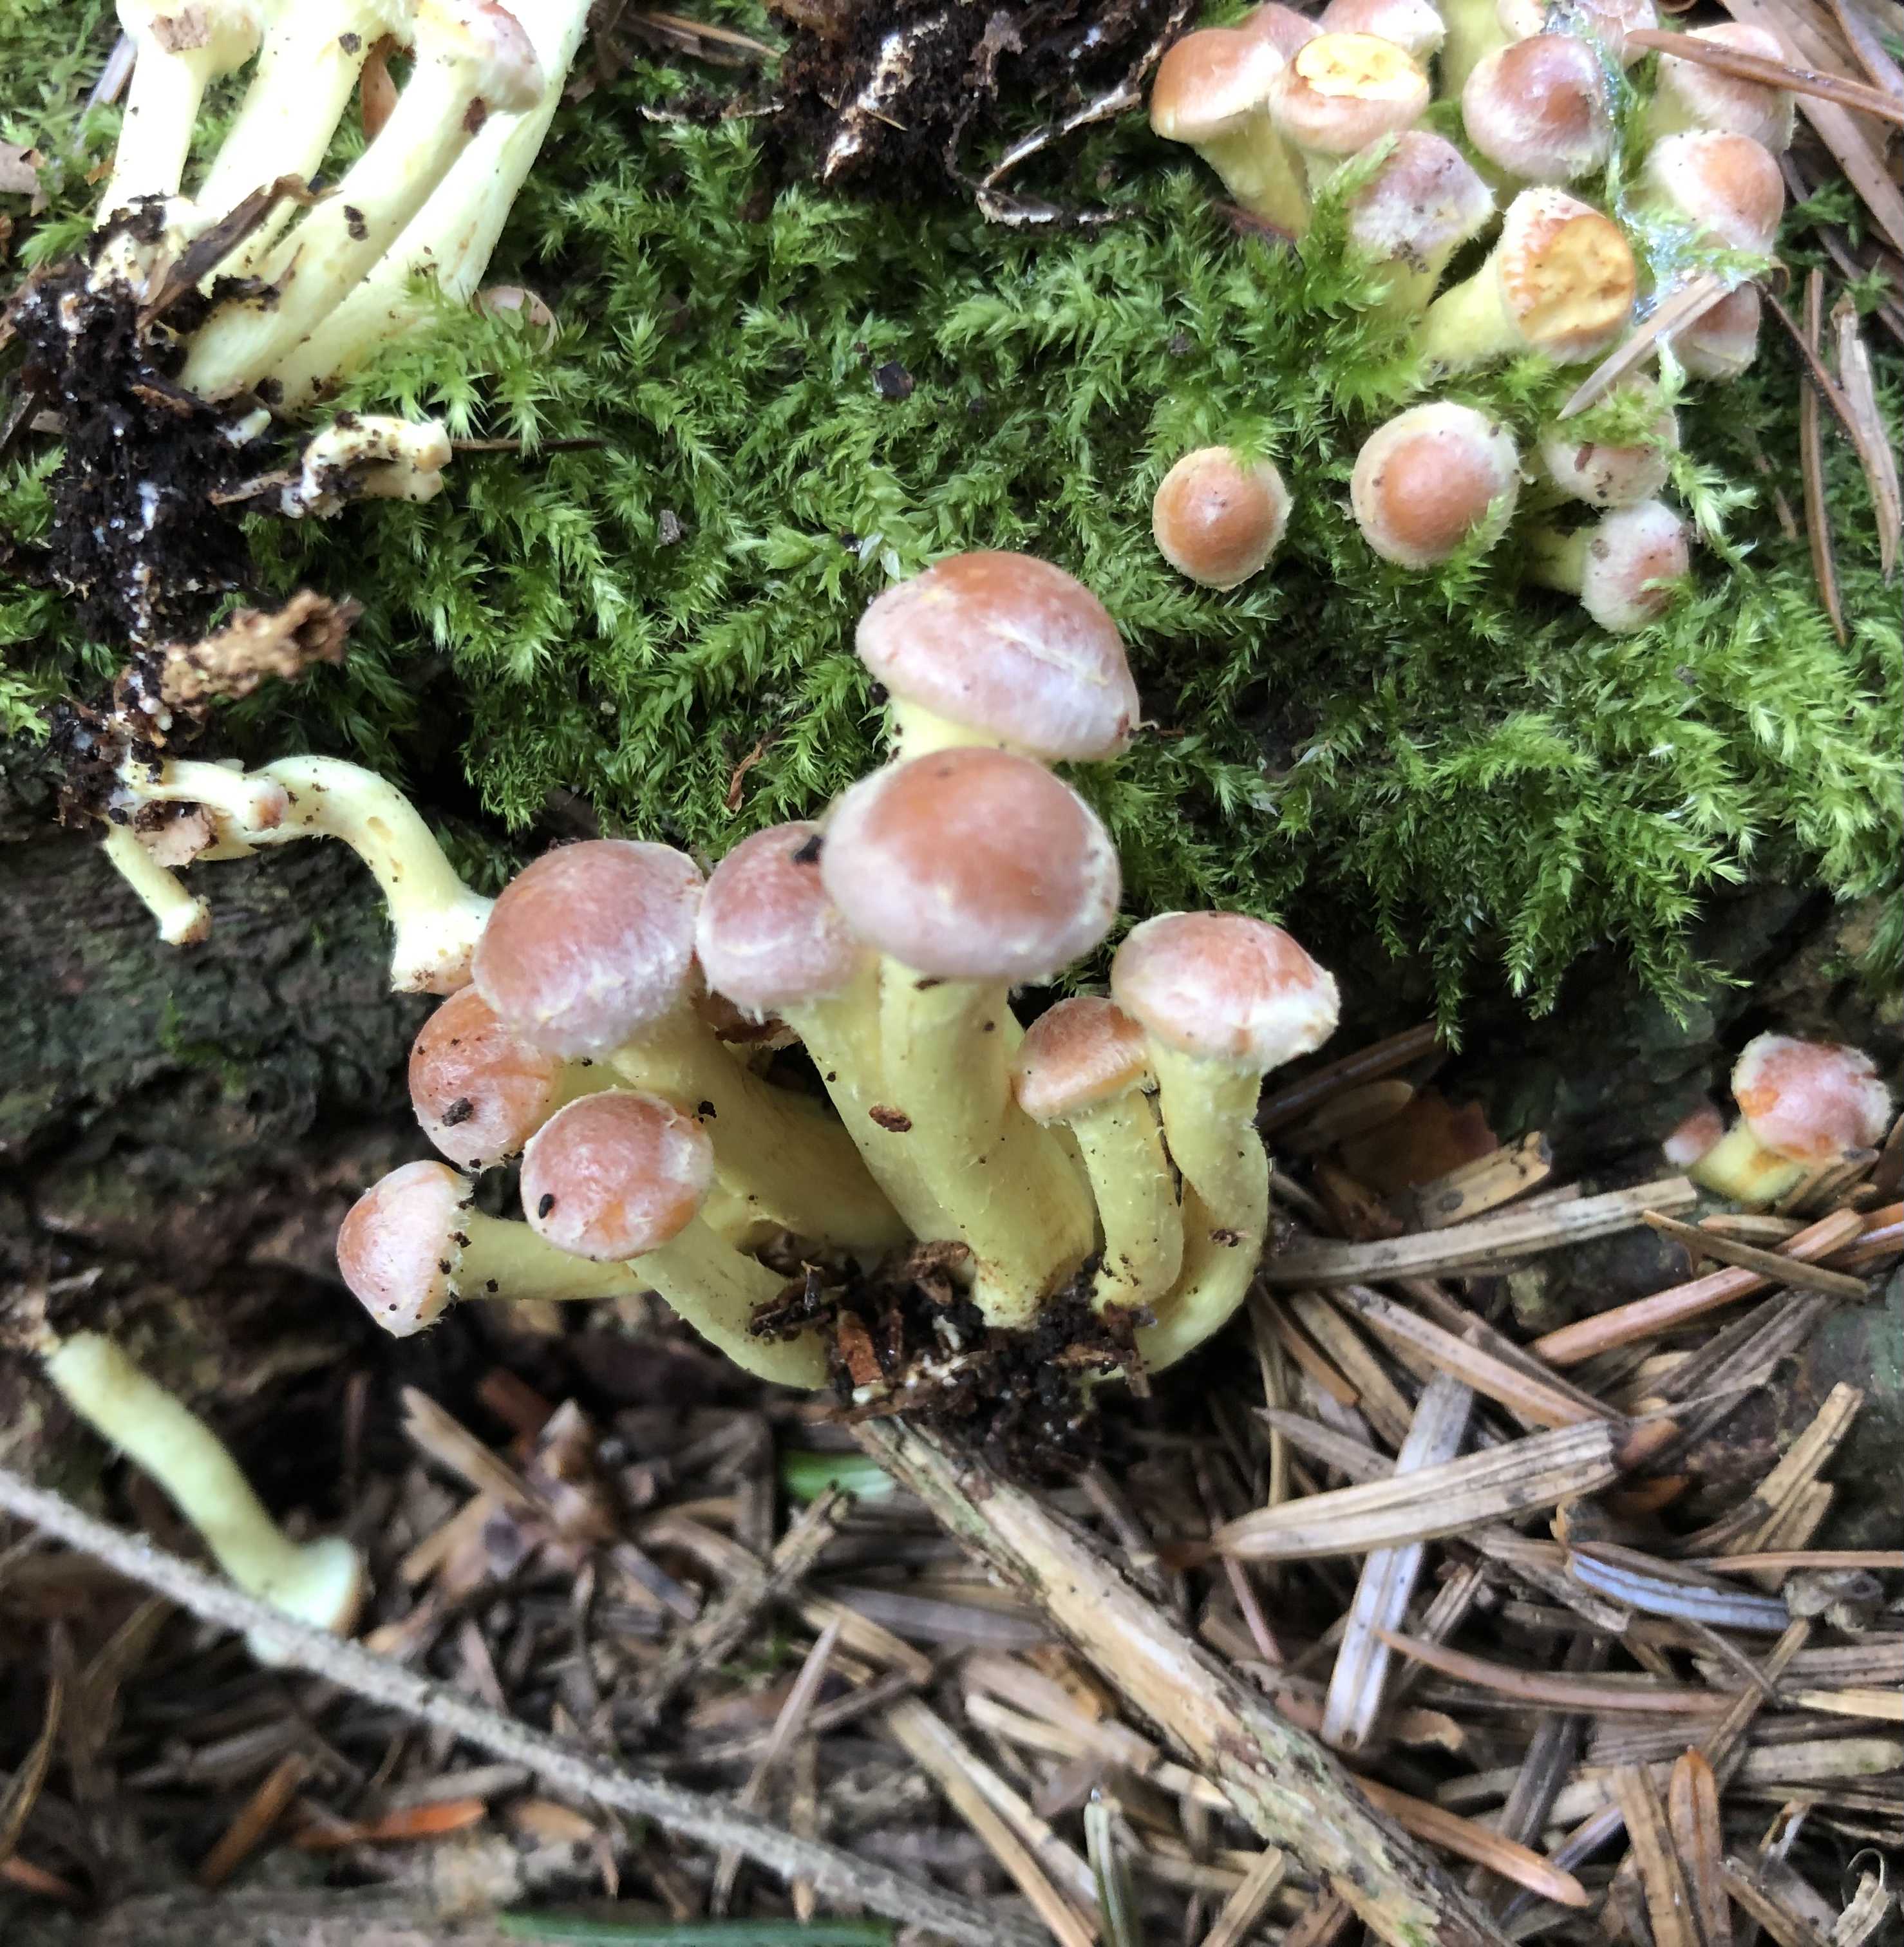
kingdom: Fungi
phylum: Basidiomycota
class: Agaricomycetes
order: Agaricales
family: Strophariaceae
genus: Hypholoma
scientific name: Hypholoma fasciculare
